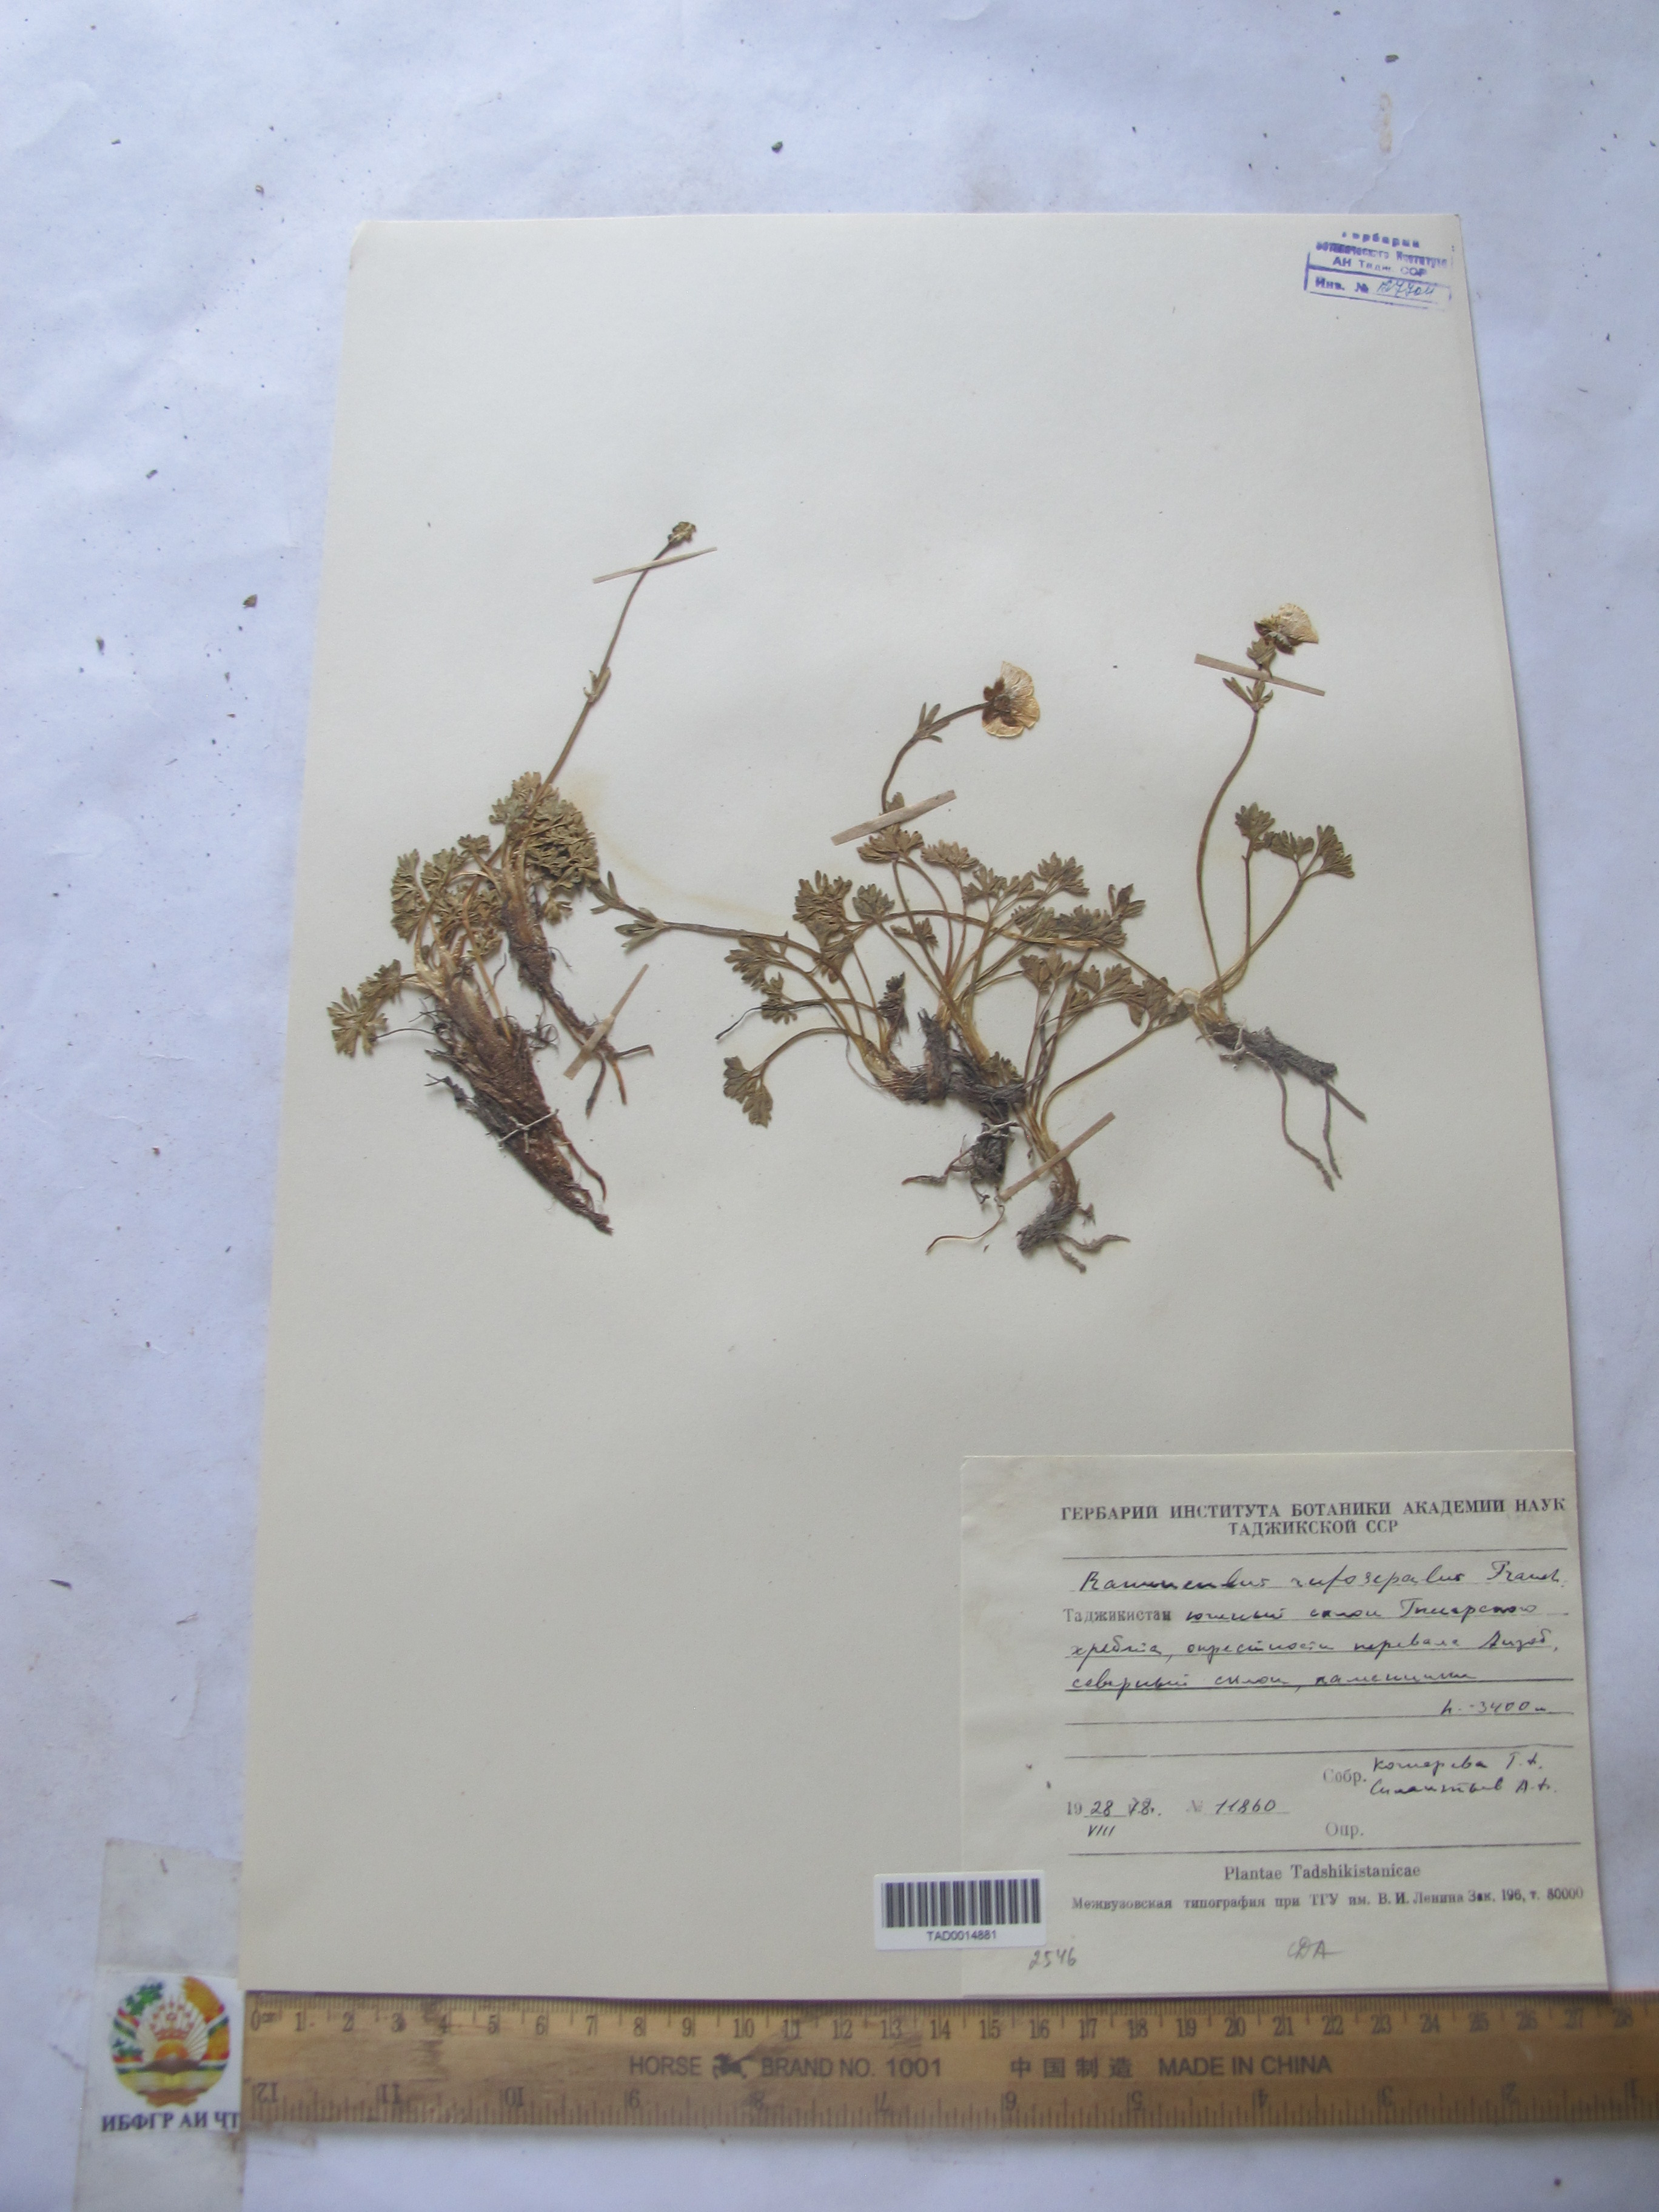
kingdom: Plantae
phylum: Tracheophyta
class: Magnoliopsida
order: Ranunculales
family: Ranunculaceae
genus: Ranunculus
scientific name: Ranunculus rufosepalus
